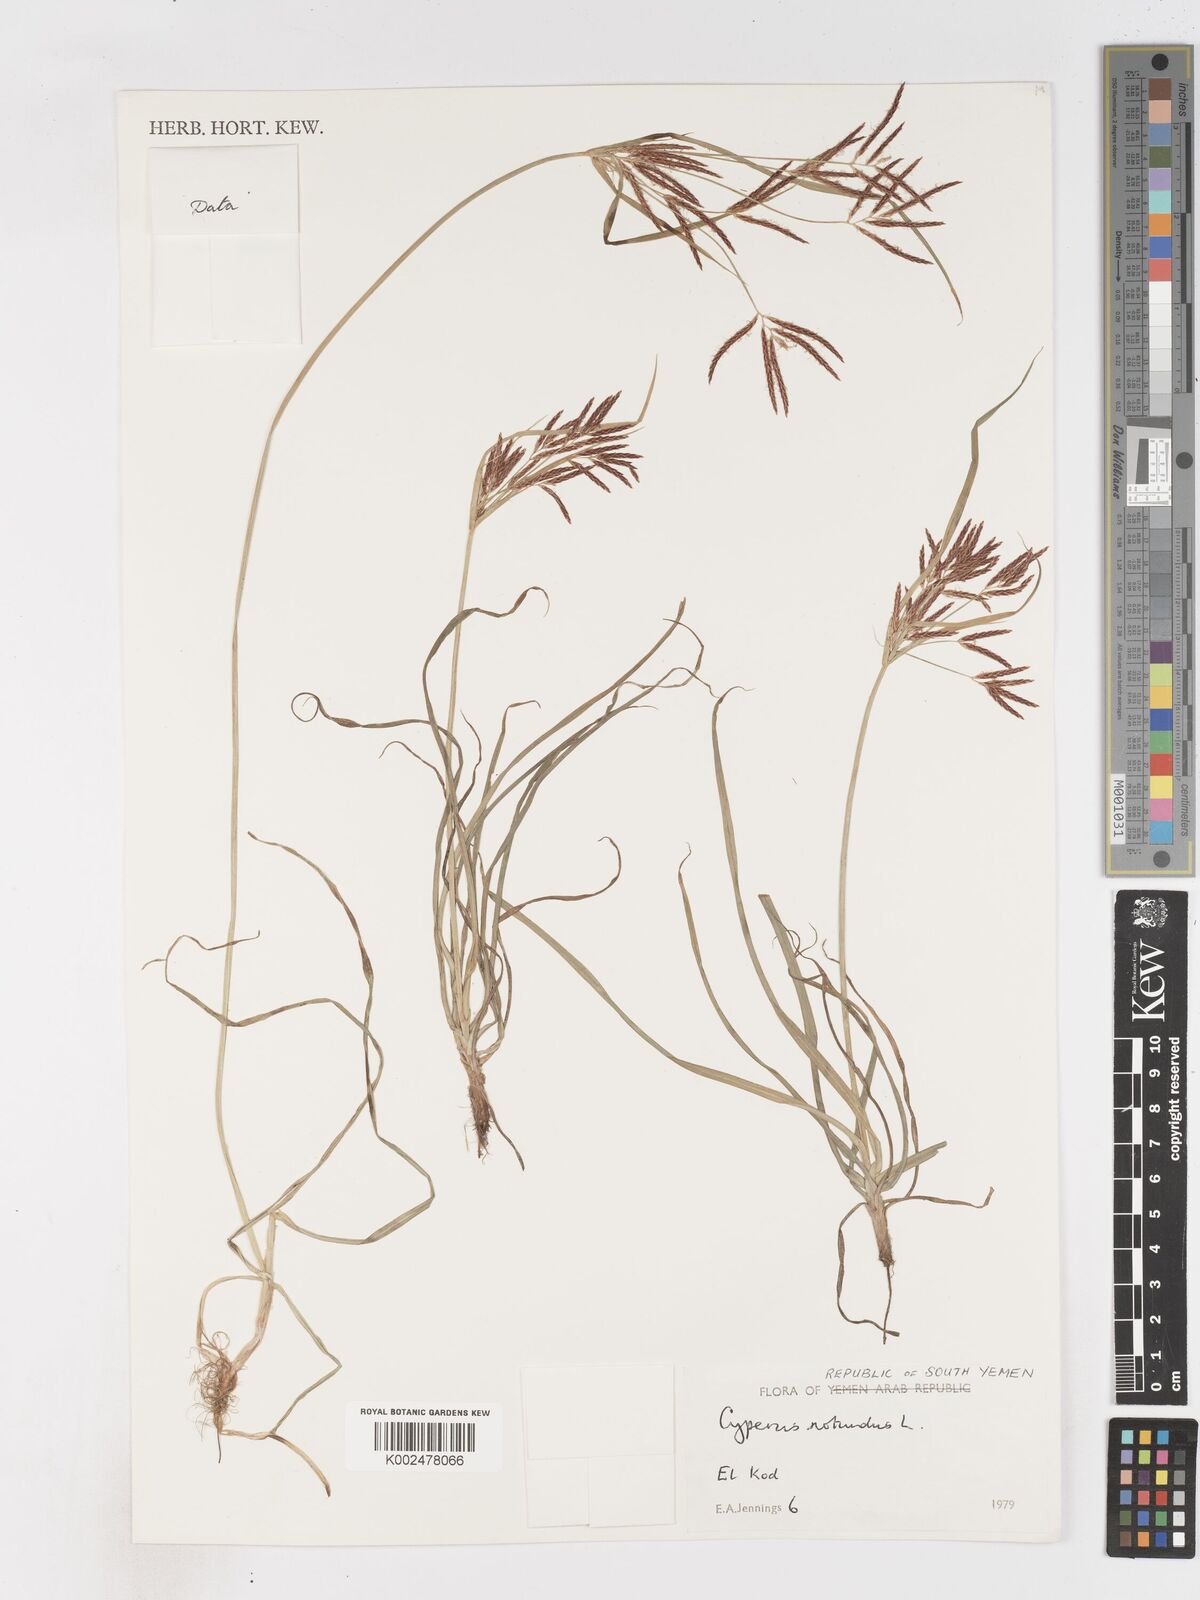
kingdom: Plantae
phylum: Tracheophyta
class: Liliopsida
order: Poales
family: Cyperaceae
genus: Cyperus
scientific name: Cyperus rotundus
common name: Nutgrass
